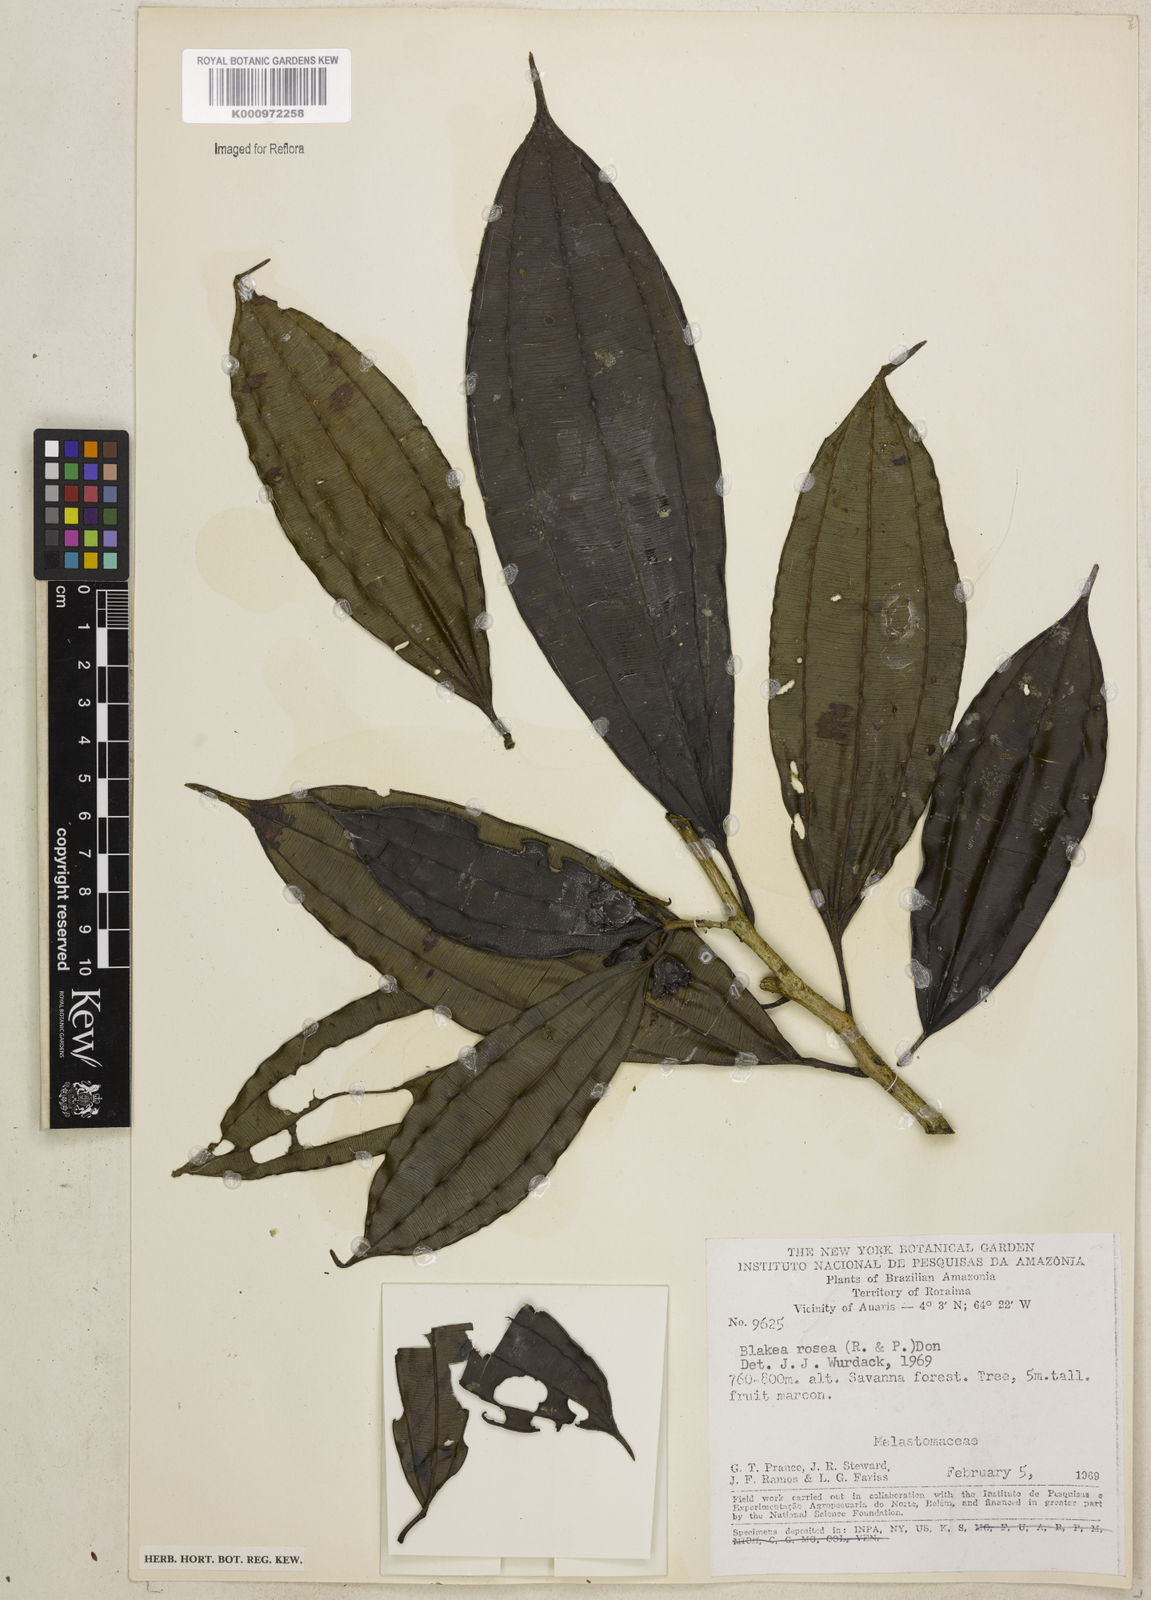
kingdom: Plantae
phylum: Tracheophyta
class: Magnoliopsida
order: Myrtales
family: Melastomataceae
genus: Blakea
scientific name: Blakea rosea
